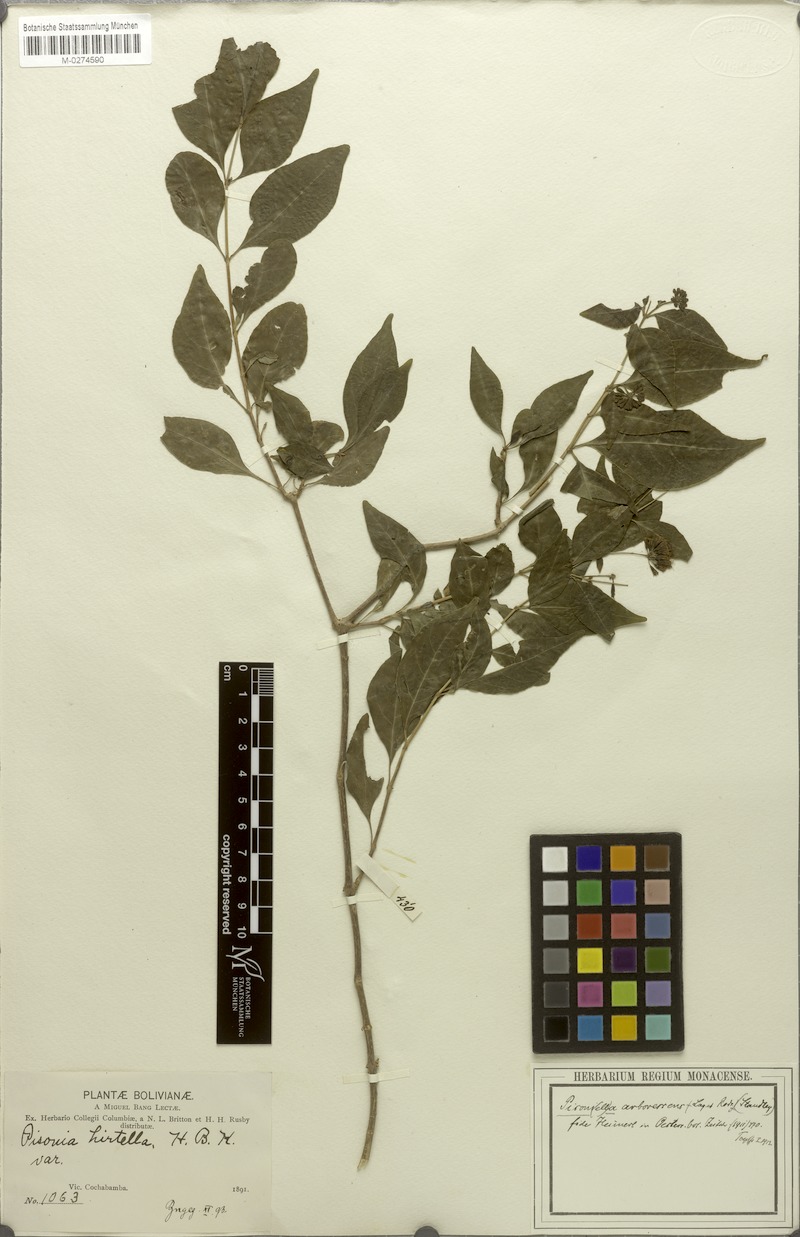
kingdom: Plantae
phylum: Tracheophyta
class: Magnoliopsida
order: Caryophyllales
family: Nyctaginaceae
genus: Pisoniella
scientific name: Pisoniella glabrata
